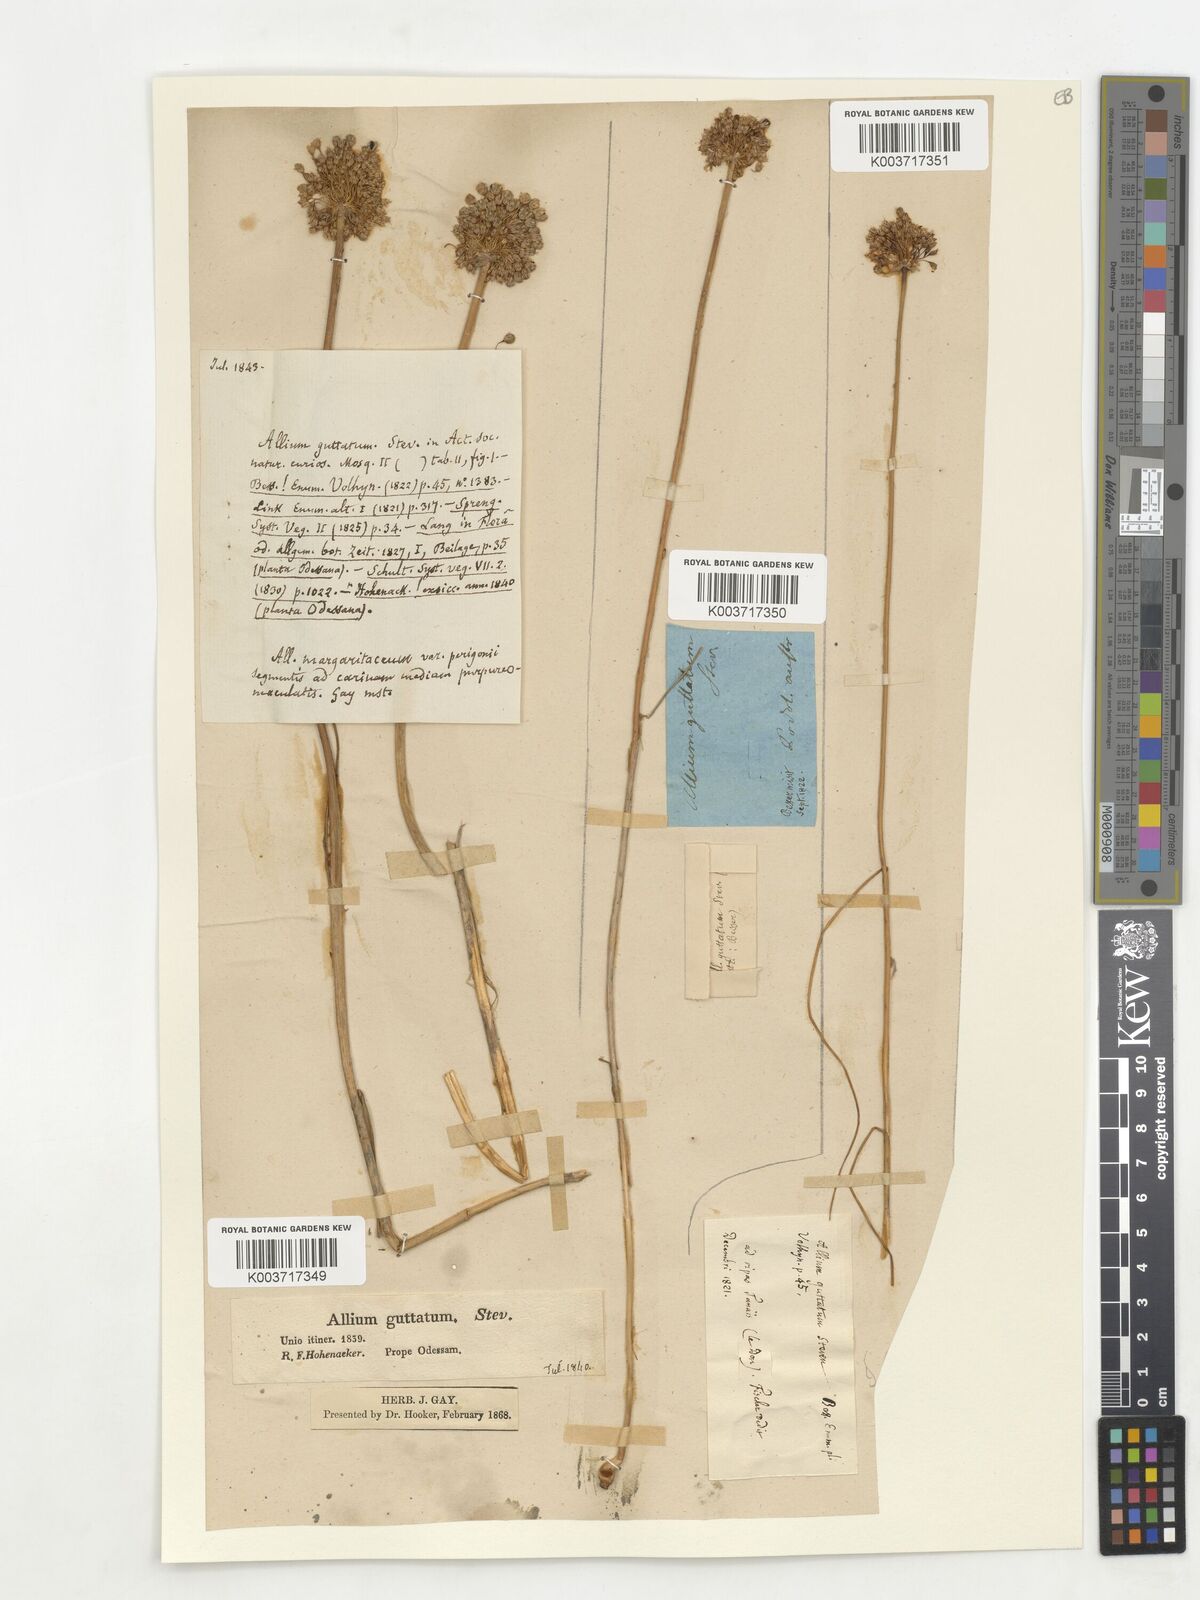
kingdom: Plantae
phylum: Tracheophyta
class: Liliopsida
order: Asparagales
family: Amaryllidaceae
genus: Allium
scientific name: Allium guttatum
